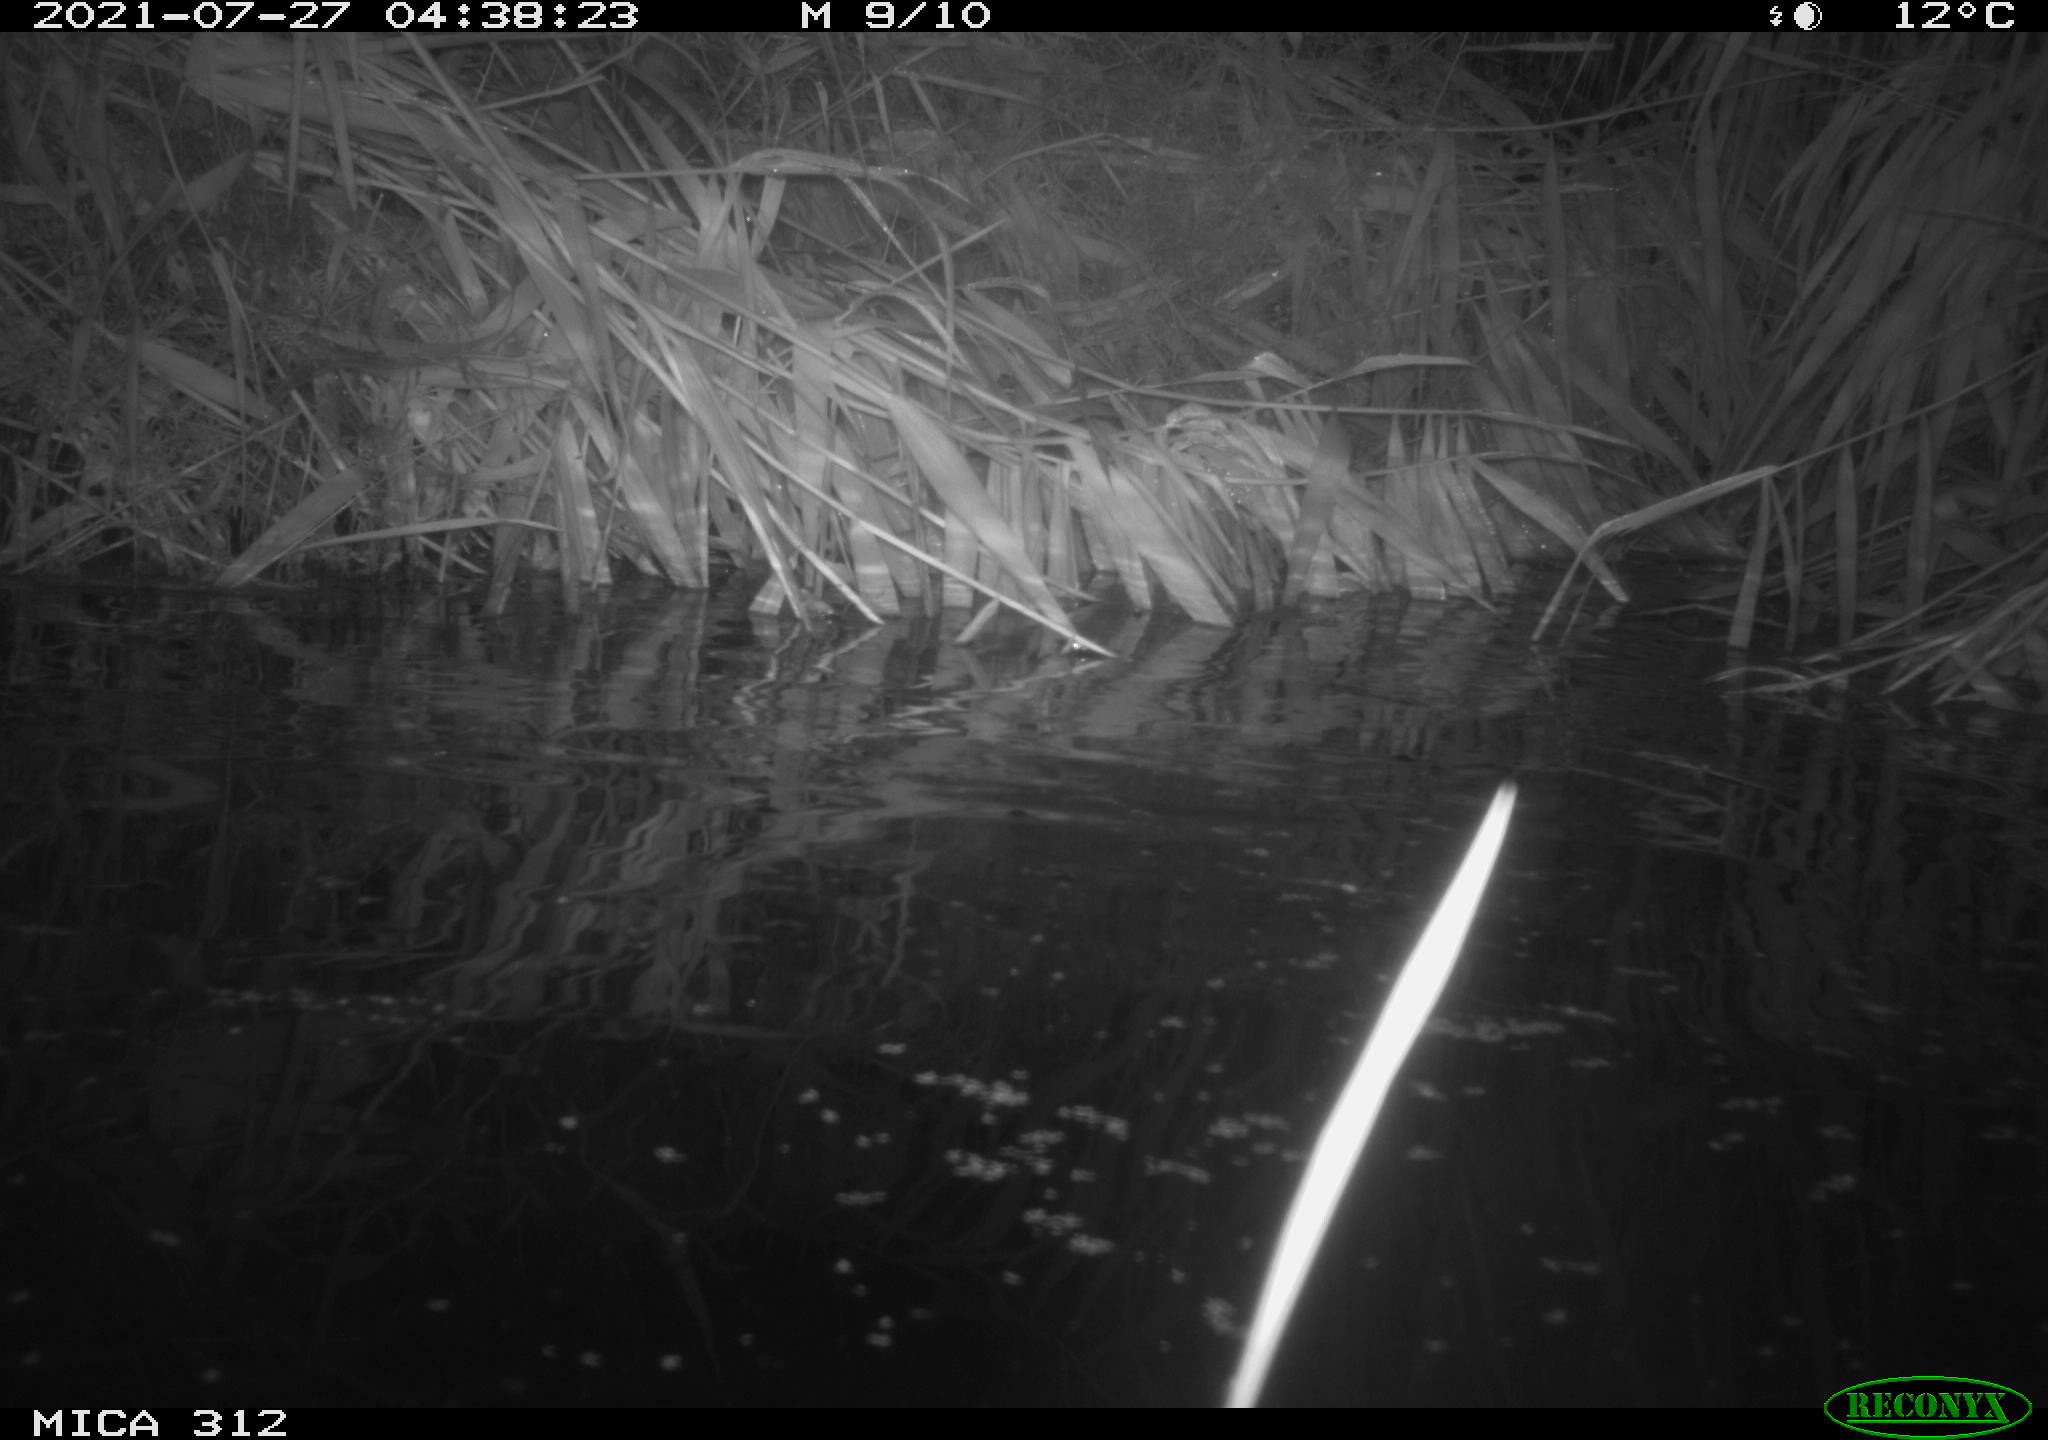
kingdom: Animalia
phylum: Chordata
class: Mammalia
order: Rodentia
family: Muridae
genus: Rattus
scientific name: Rattus norvegicus
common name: Brown rat
